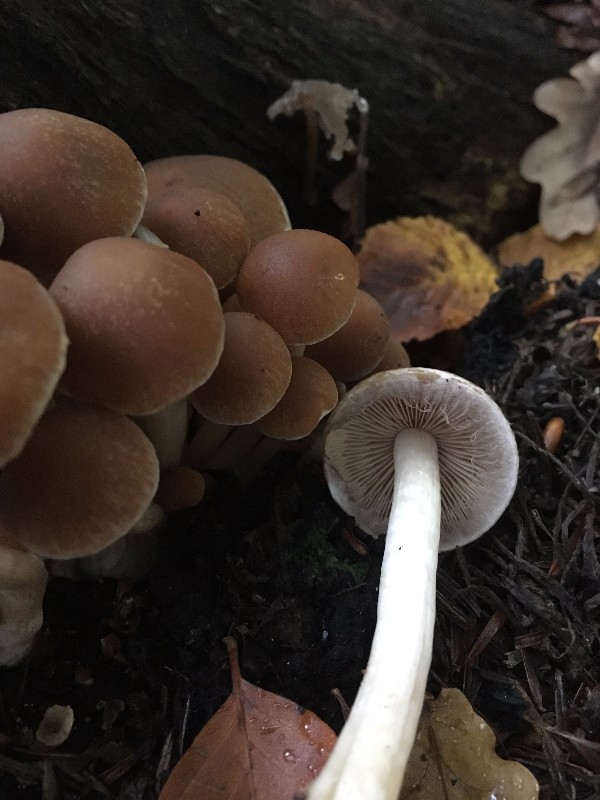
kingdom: Fungi
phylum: Basidiomycota
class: Agaricomycetes
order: Agaricales
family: Psathyrellaceae
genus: Psathyrella
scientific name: Psathyrella piluliformis
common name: lysstokket mørkhat
